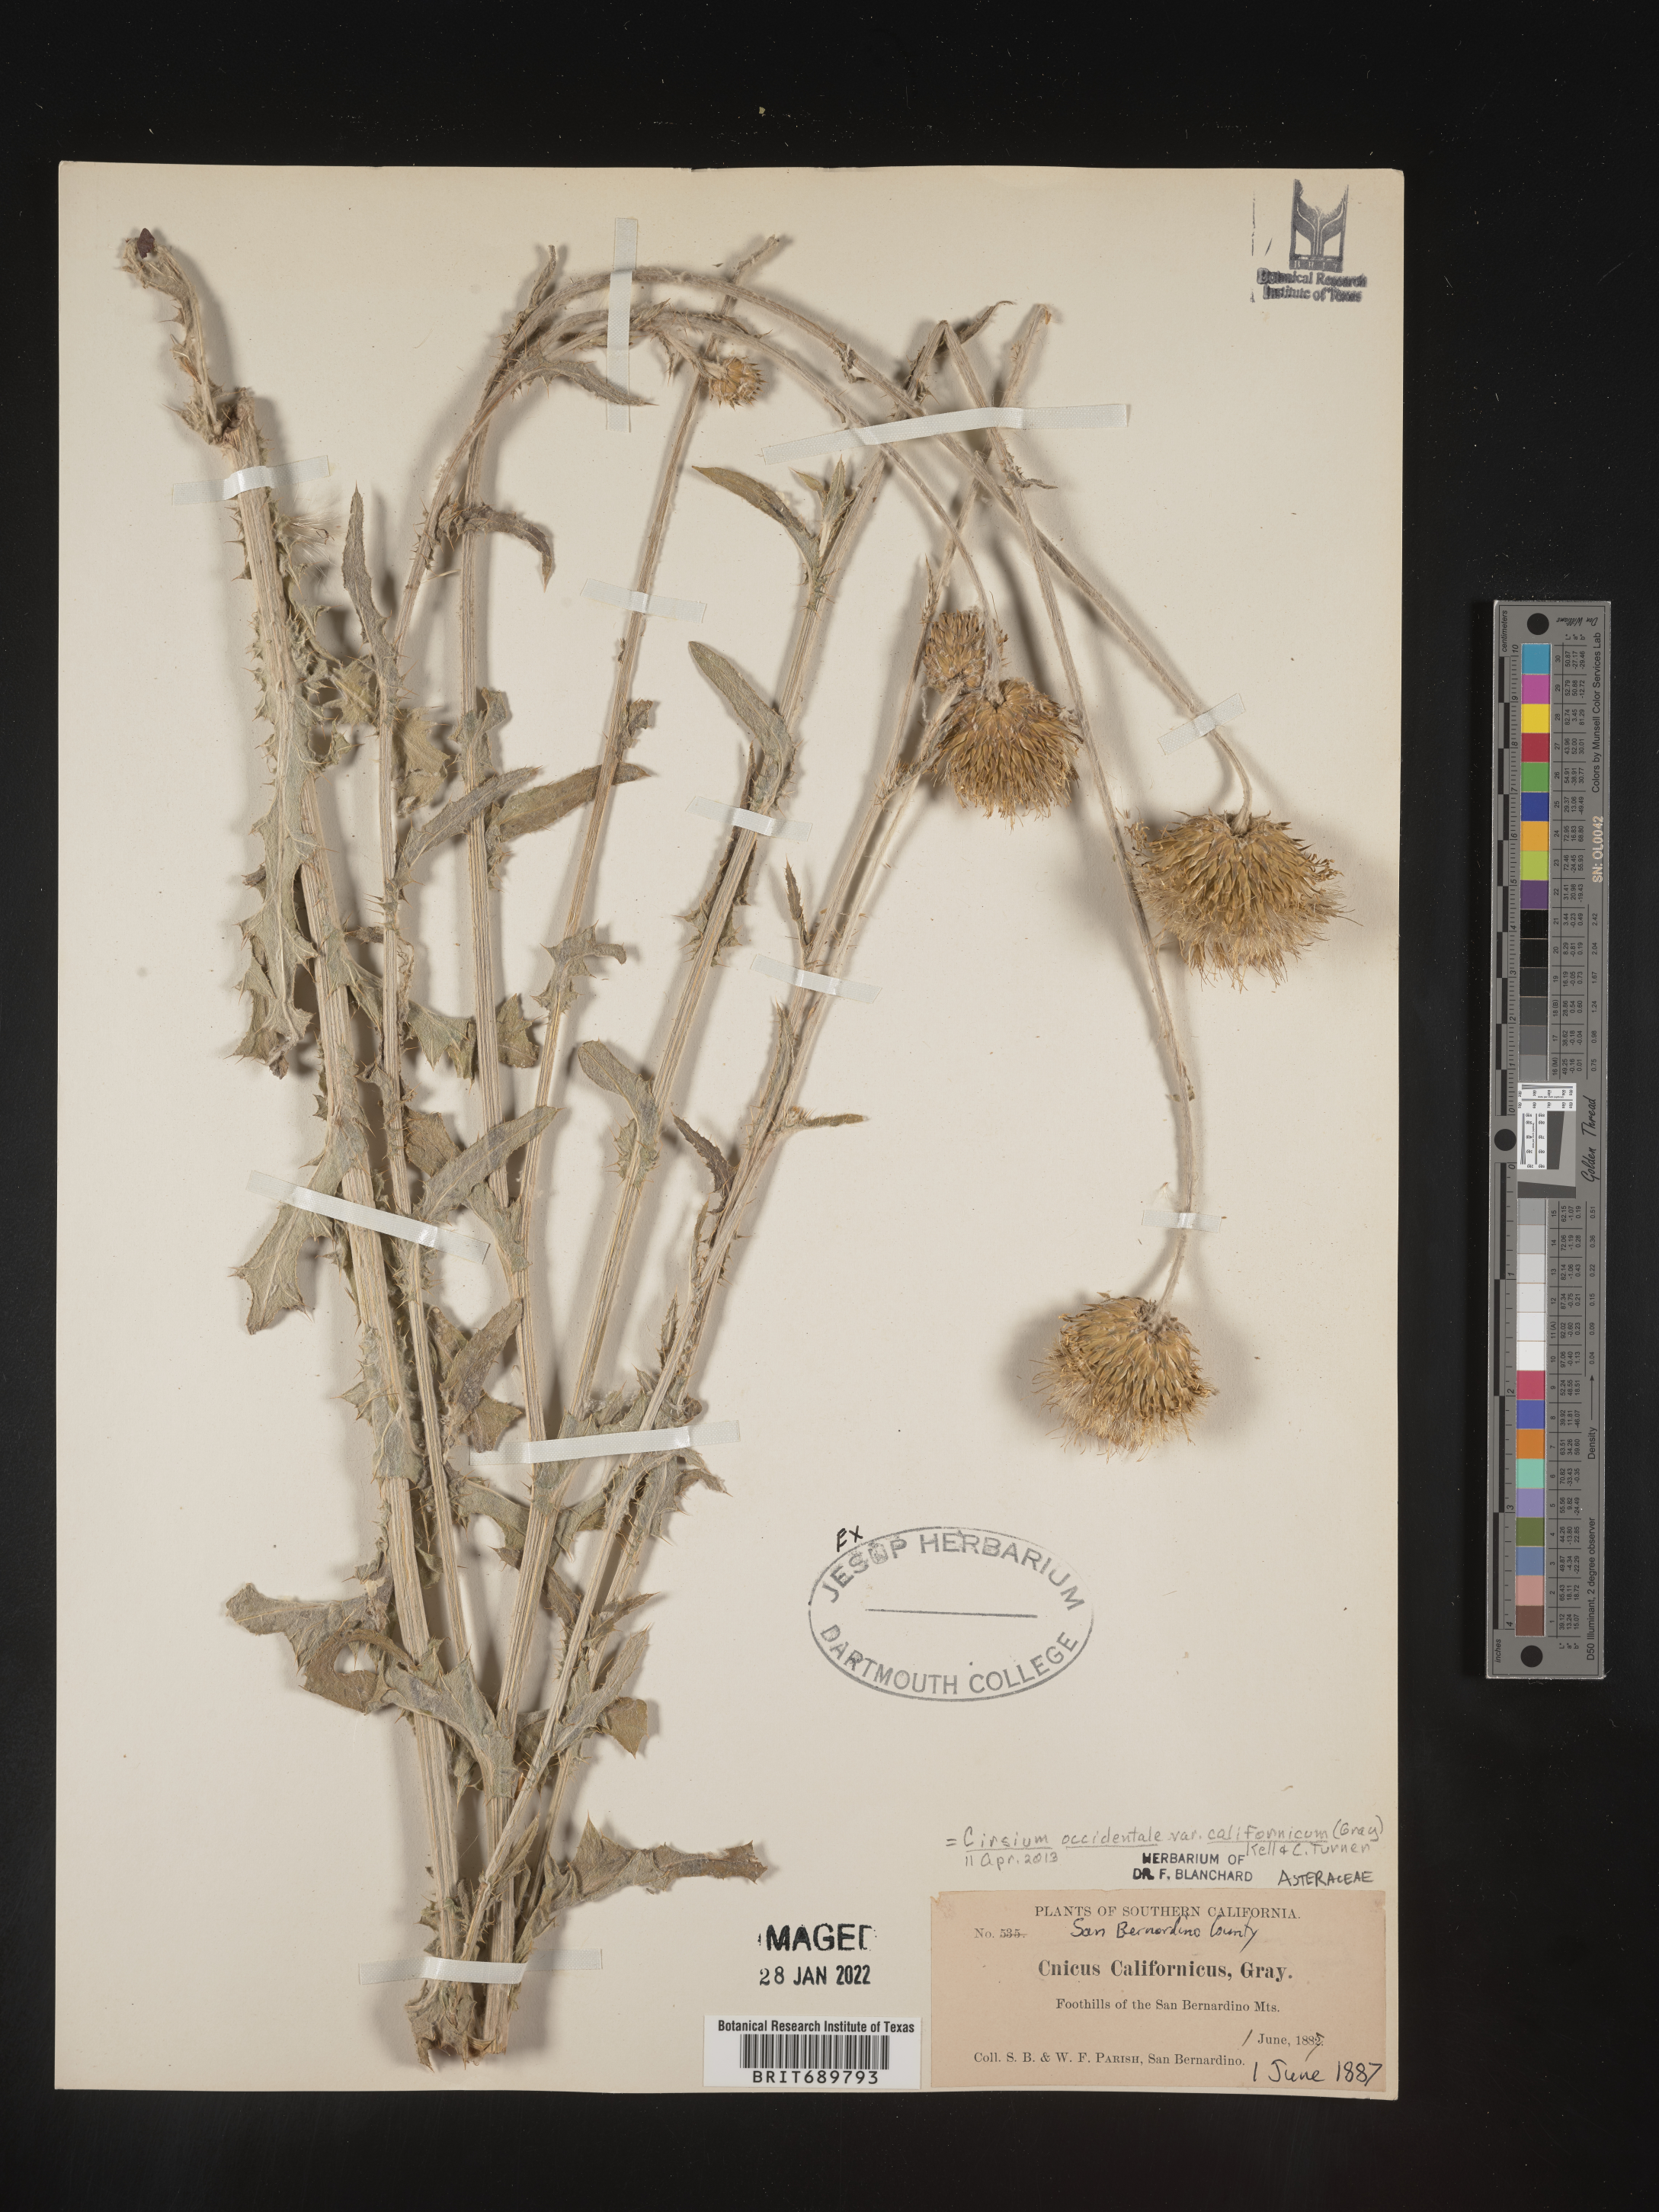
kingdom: Plantae
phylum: Tracheophyta
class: Magnoliopsida
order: Asterales
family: Asteraceae
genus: Cirsium
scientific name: Cirsium occidentale
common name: Western thistle
